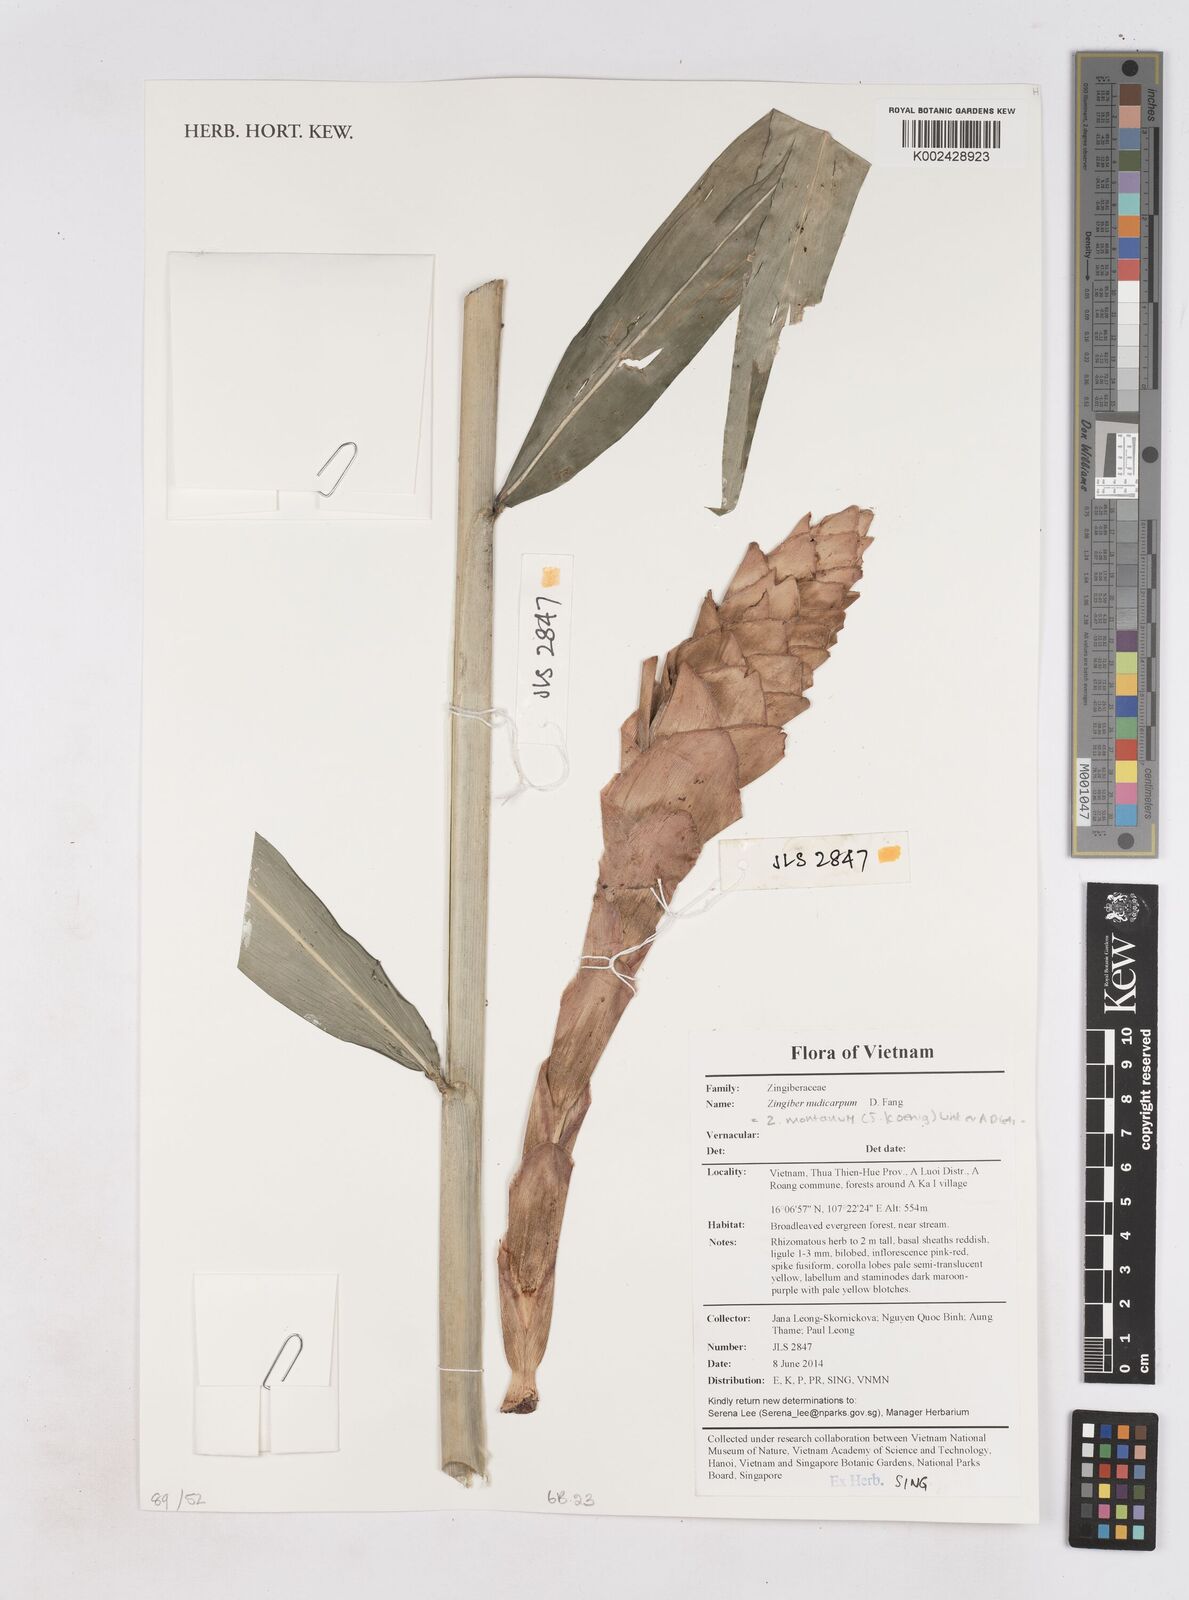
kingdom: Plantae
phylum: Tracheophyta
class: Liliopsida
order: Zingiberales
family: Zingiberaceae
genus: Zingiber
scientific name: Zingiber montanum
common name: Bengal ginger
